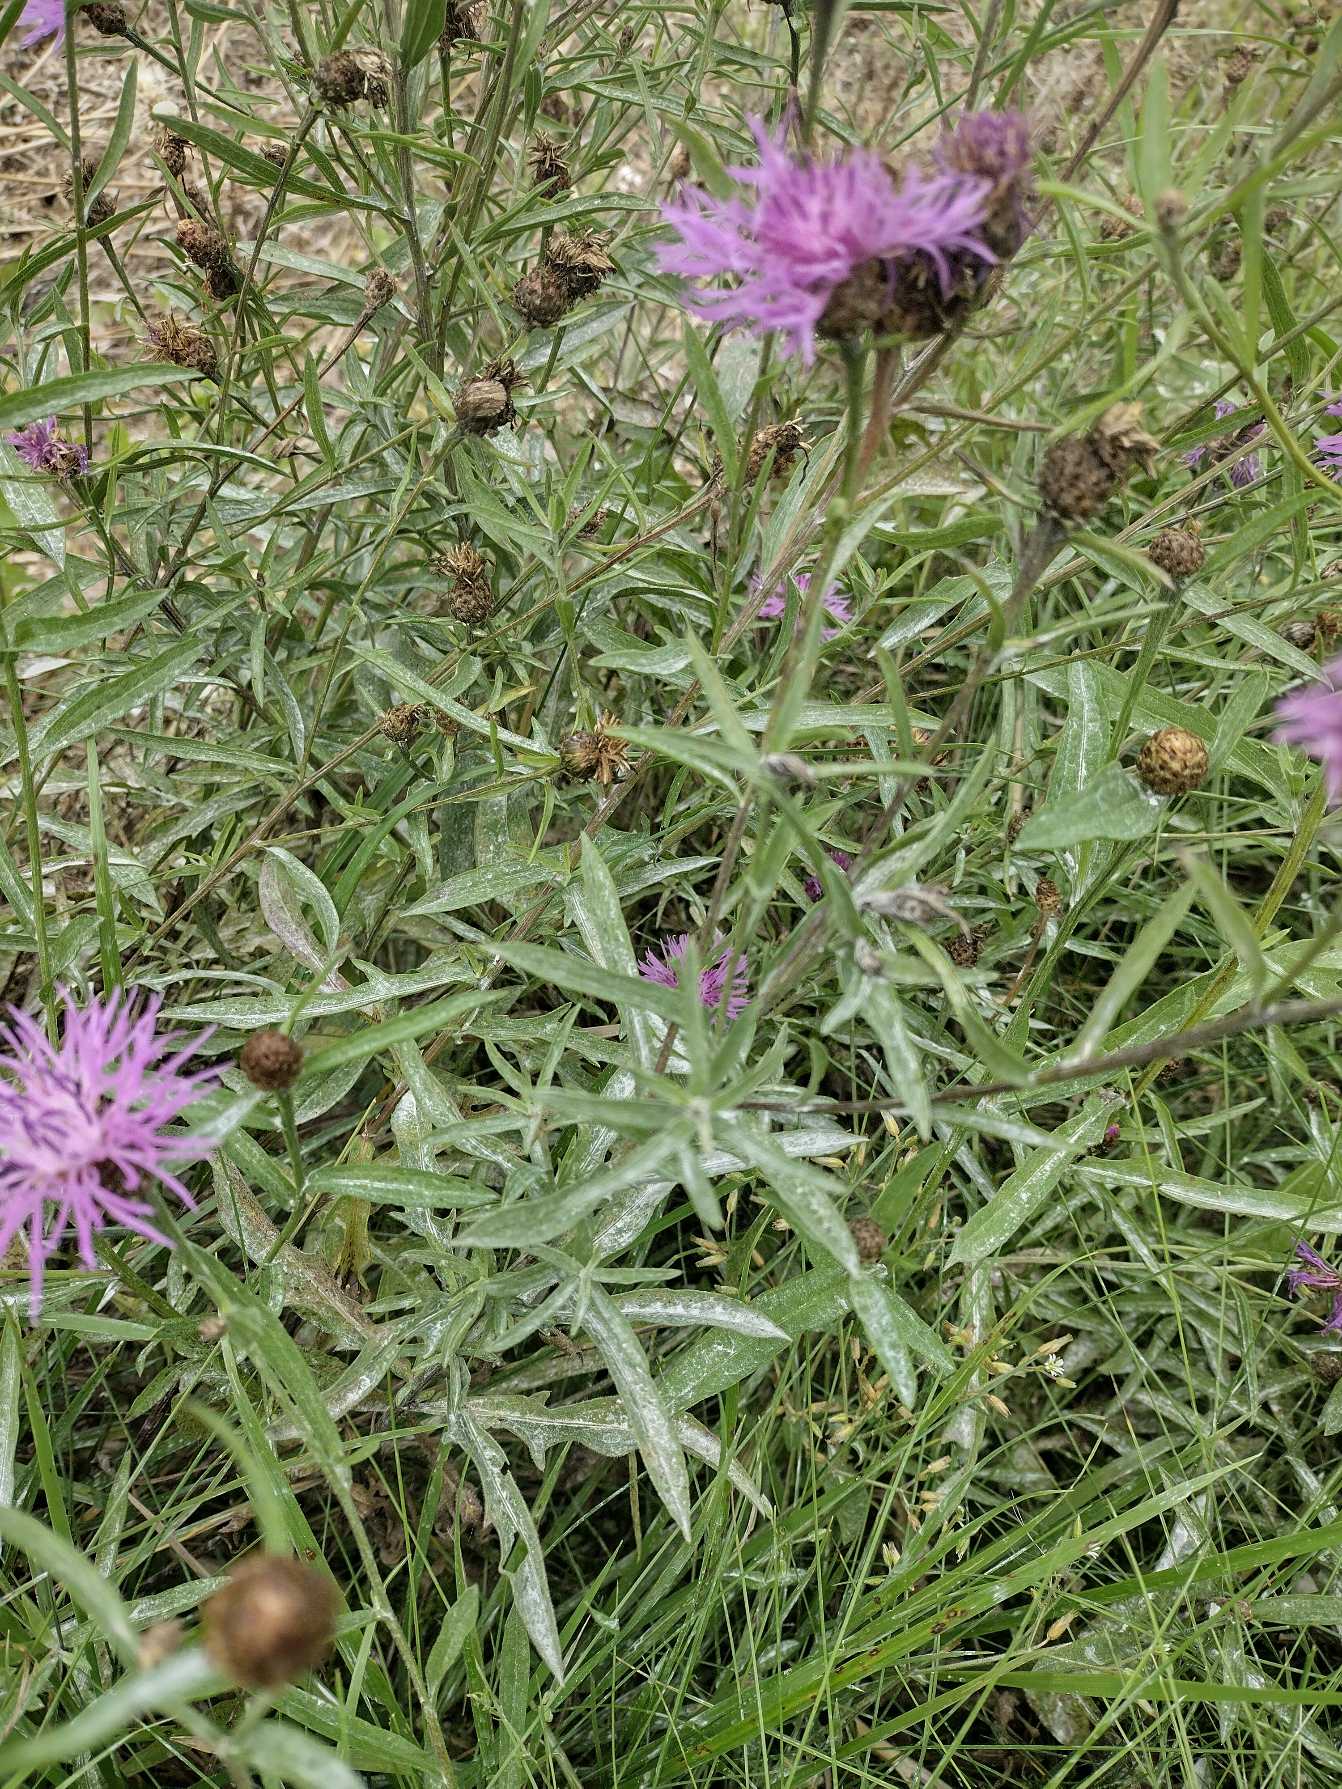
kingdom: Plantae
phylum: Tracheophyta
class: Magnoliopsida
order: Asterales
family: Asteraceae
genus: Centaurea
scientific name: Centaurea jacea
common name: Almindelig knopurt
